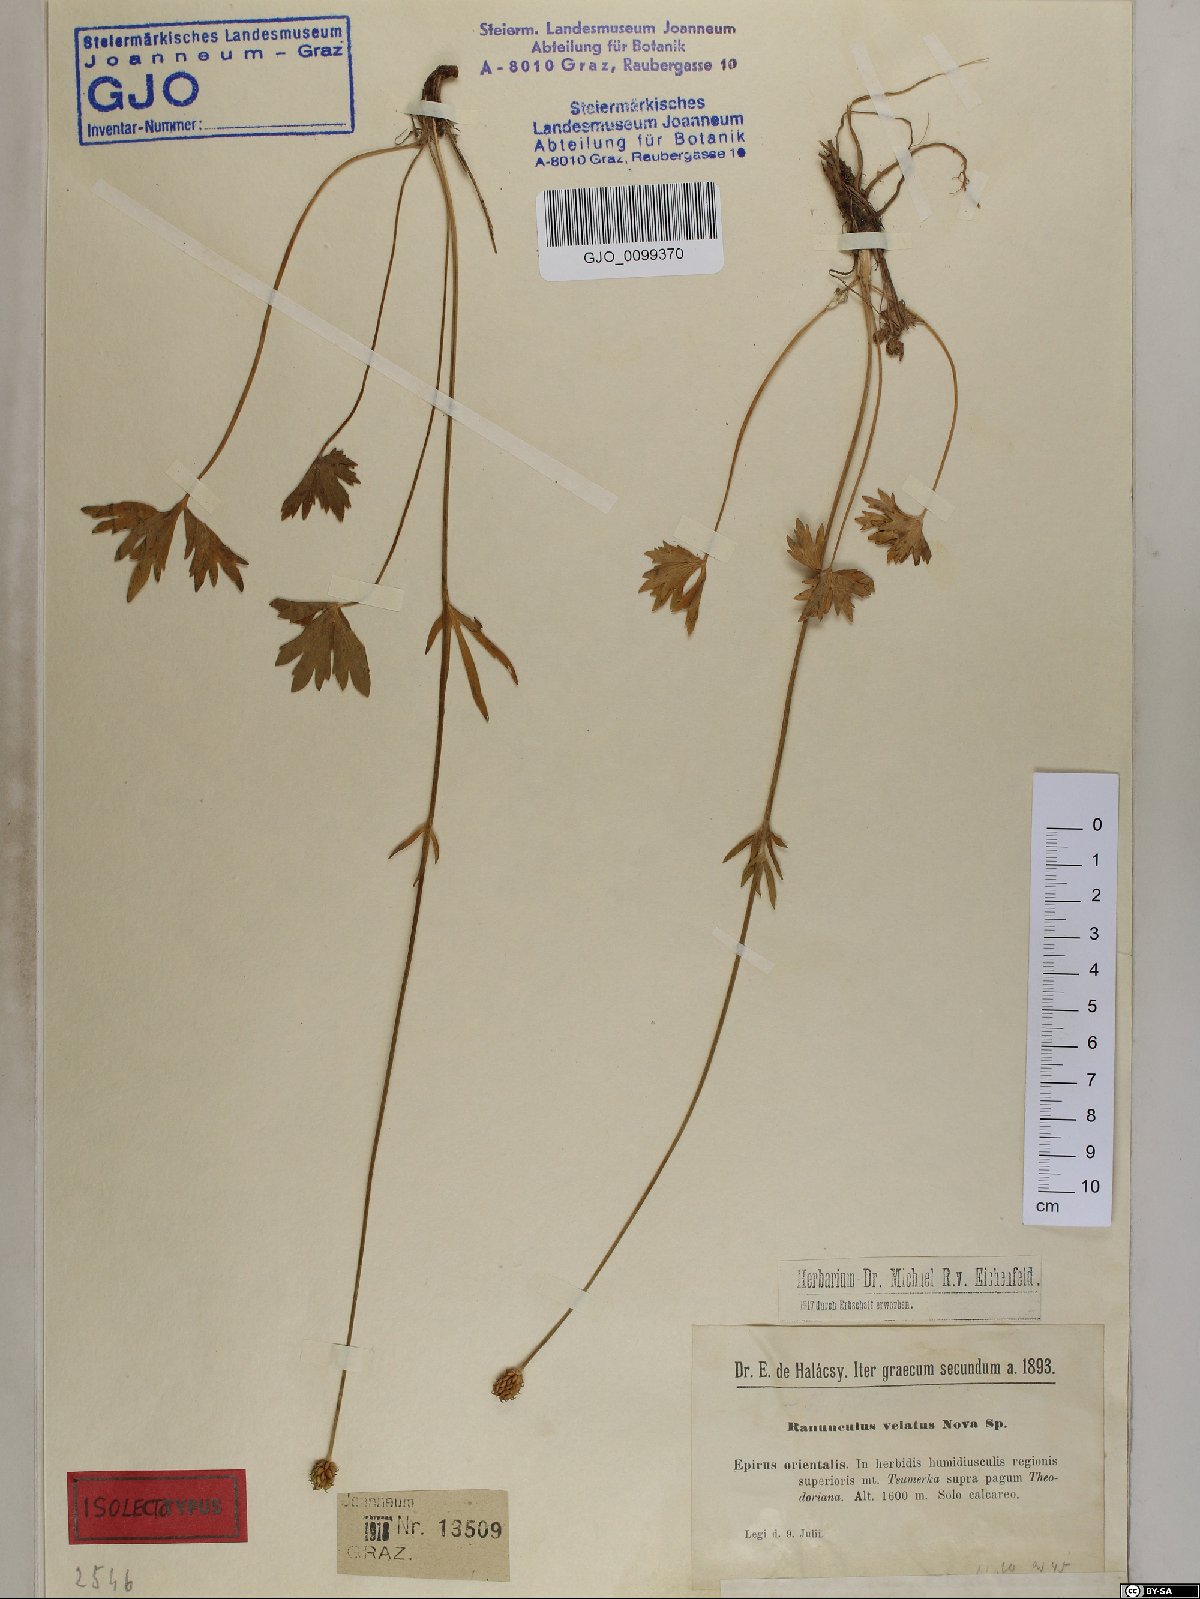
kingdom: Plantae
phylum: Tracheophyta
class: Magnoliopsida
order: Ranunculales
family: Ranunculaceae
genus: Ranunculus
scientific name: Ranunculus sartorianus
